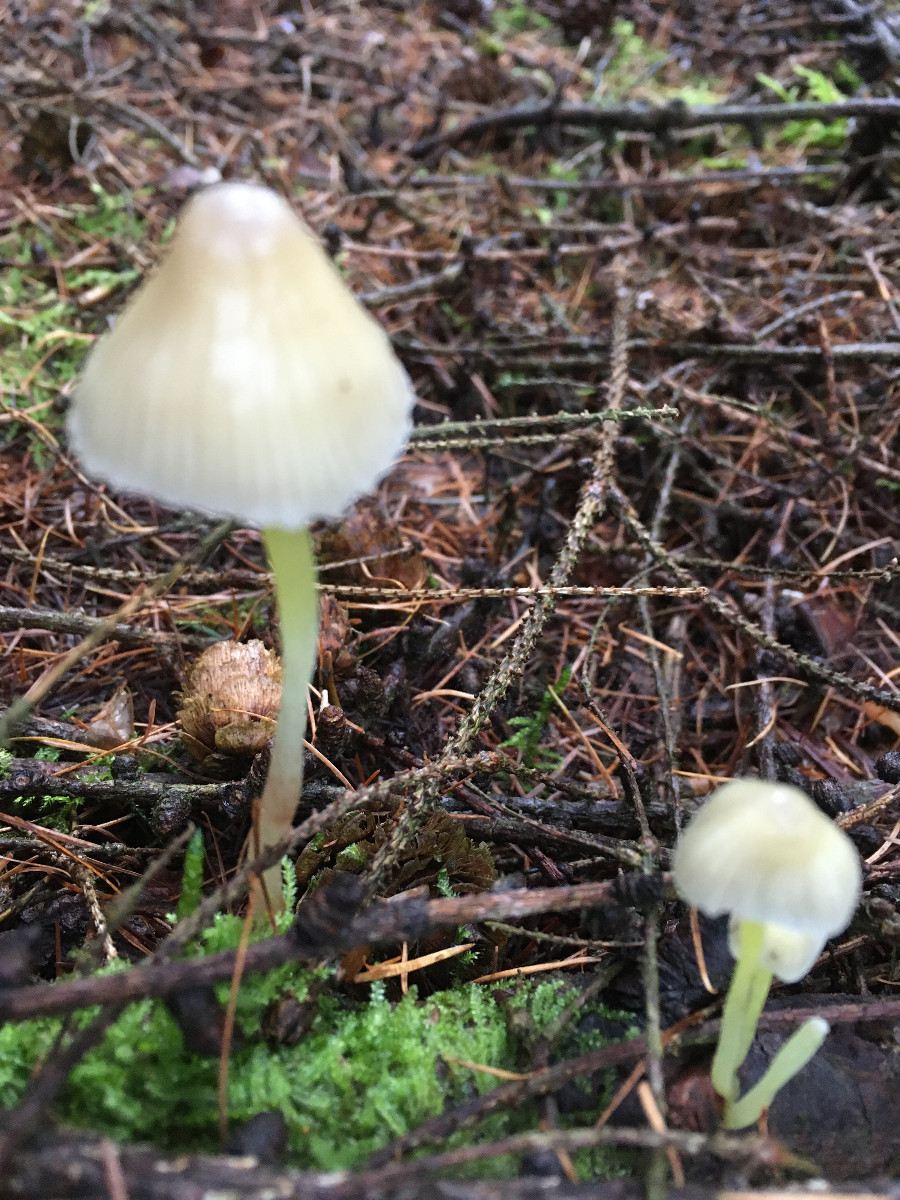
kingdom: Fungi
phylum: Basidiomycota
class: Agaricomycetes
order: Agaricales
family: Mycenaceae
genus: Mycena
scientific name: Mycena epipterygia
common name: gulstokket huesvamp
